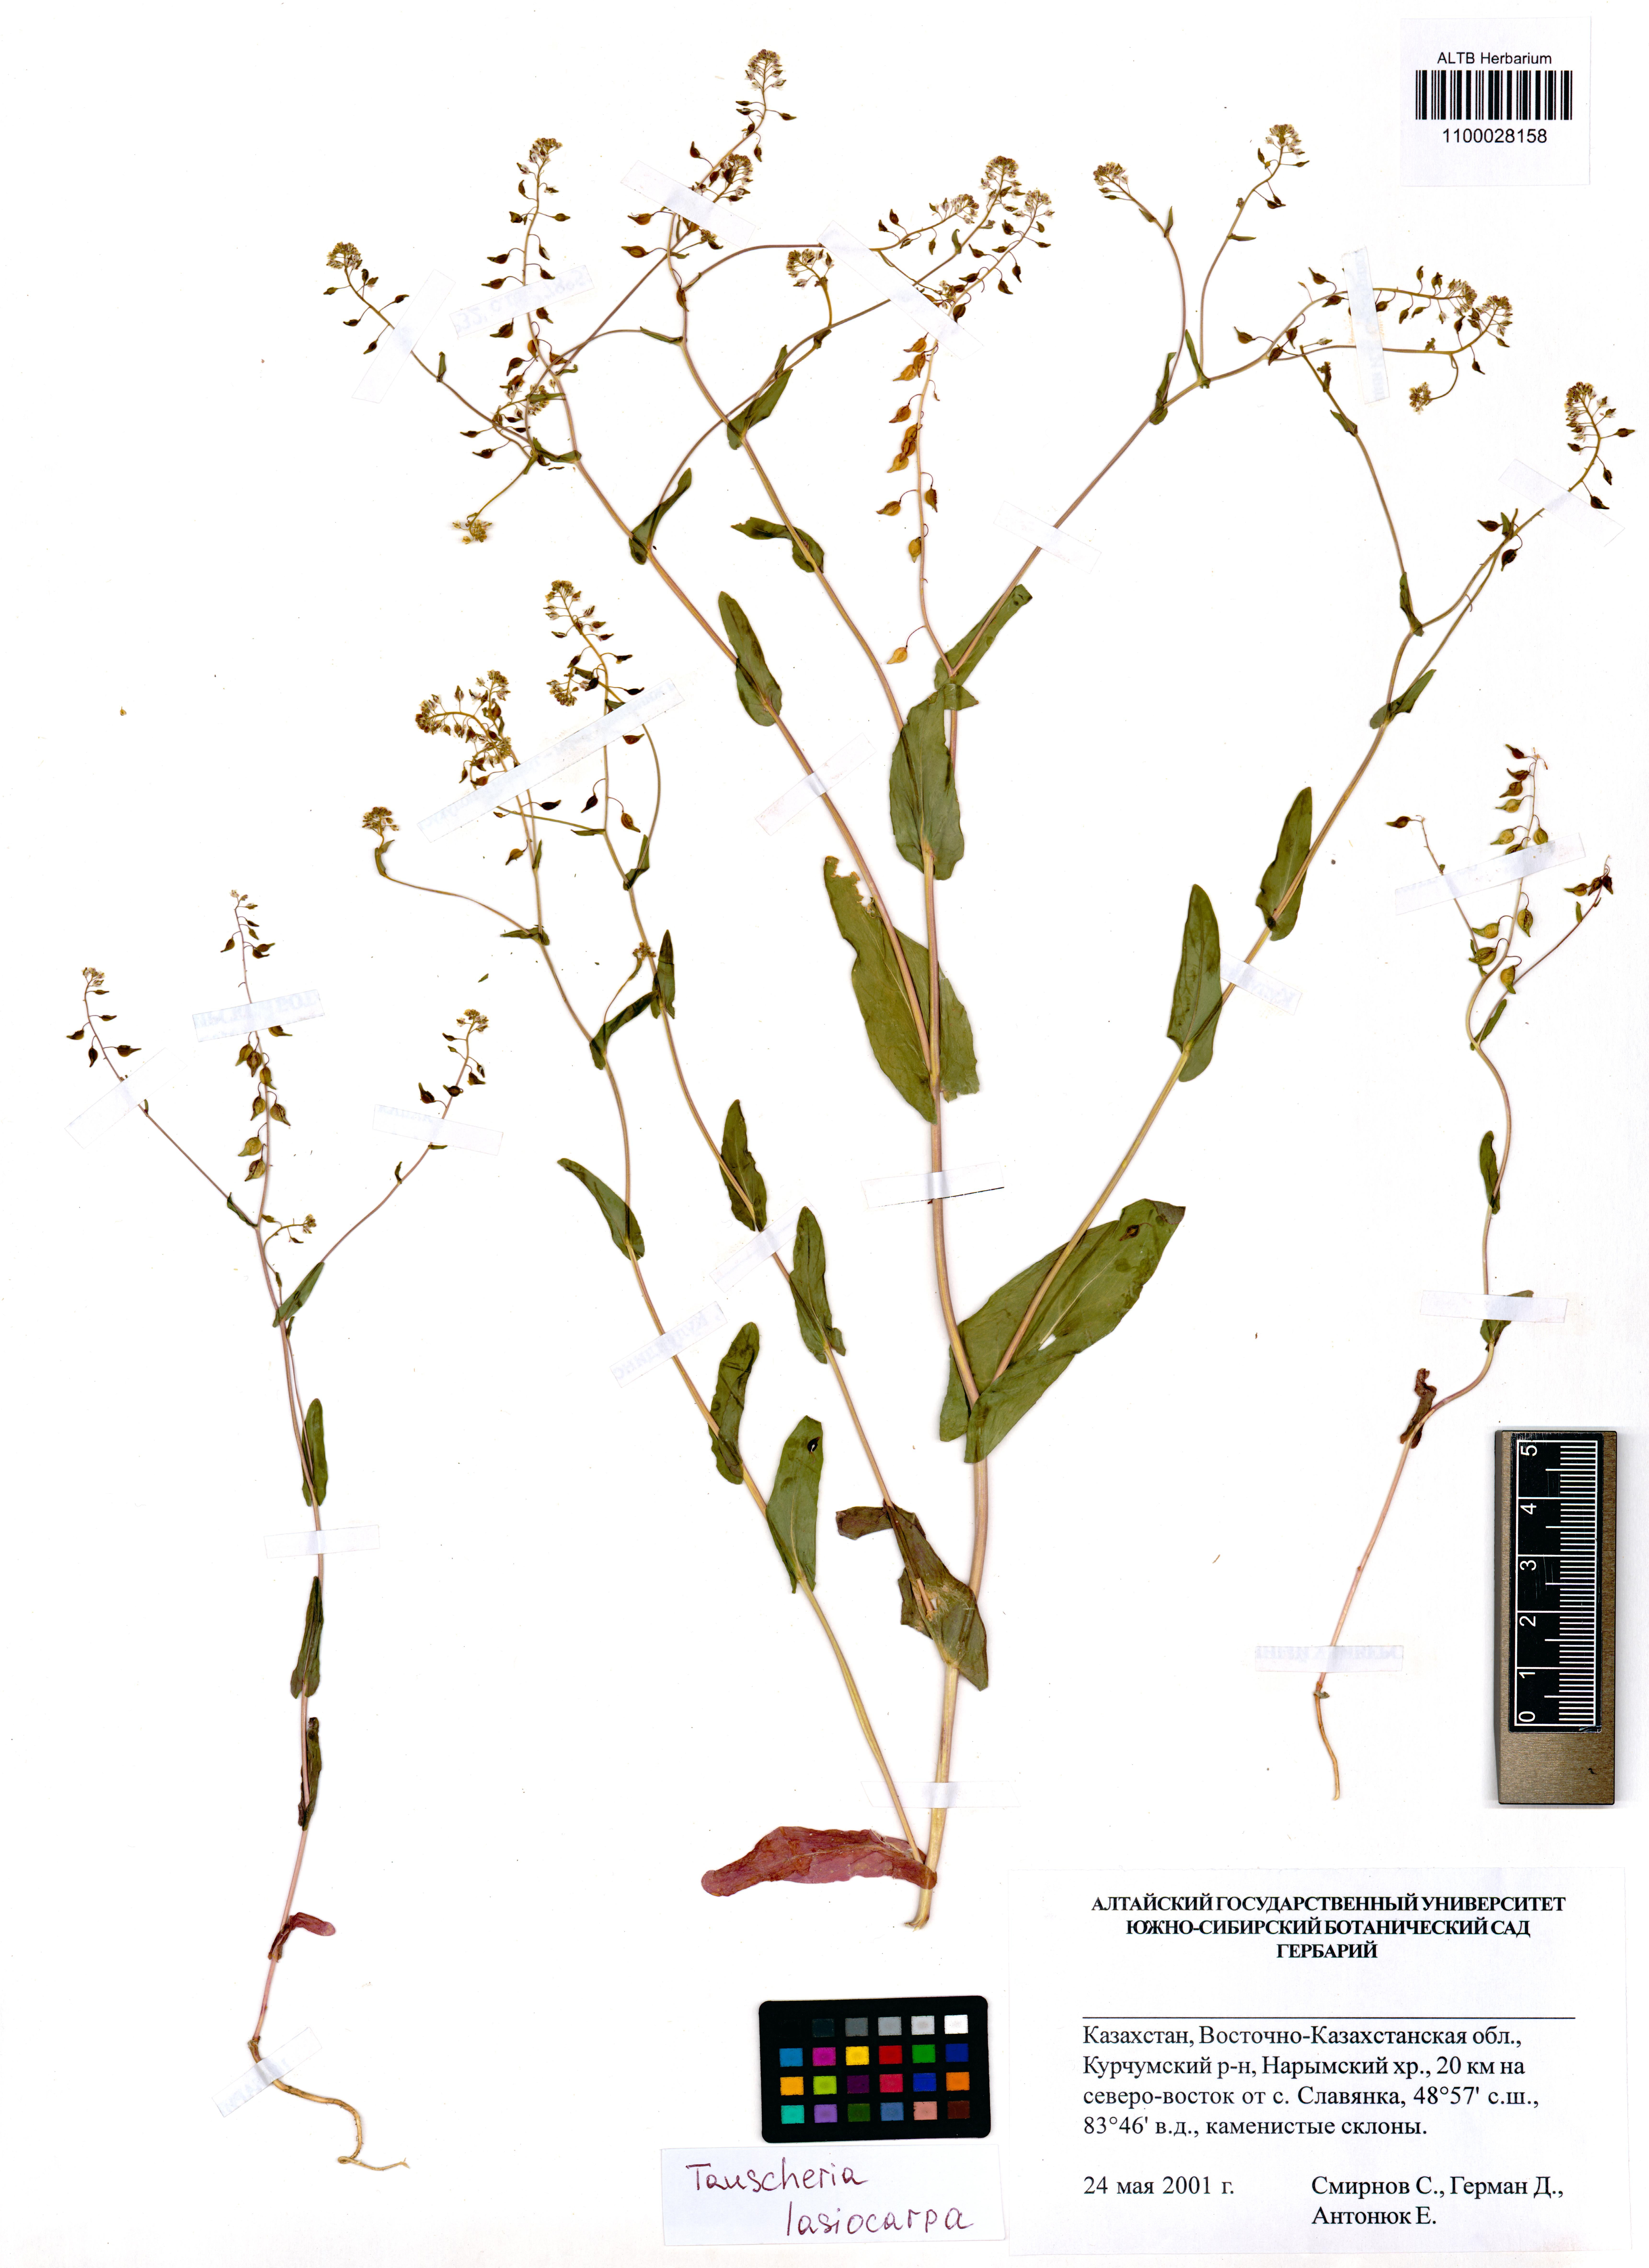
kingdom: Plantae
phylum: Tracheophyta
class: Magnoliopsida
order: Brassicales
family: Brassicaceae
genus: Tauscheria
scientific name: Tauscheria lasiocarpa
